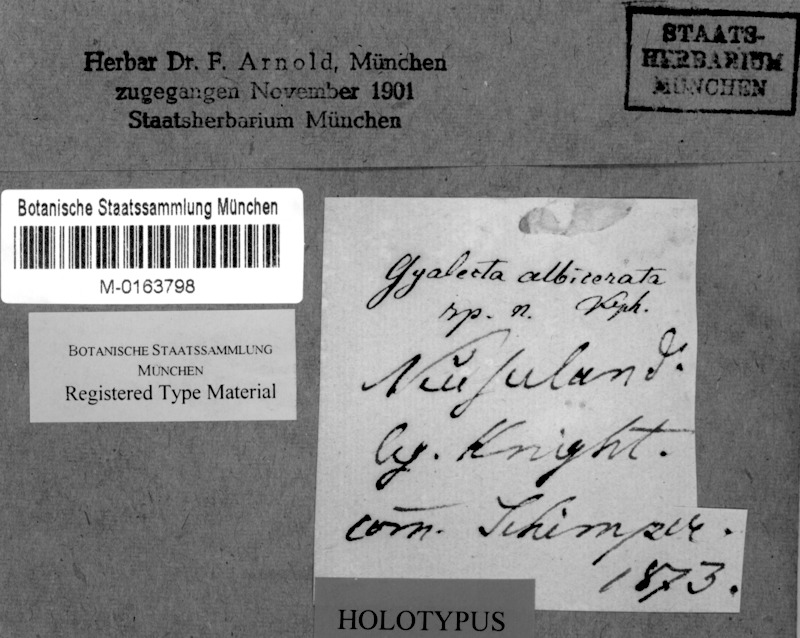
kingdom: Fungi
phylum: Ascomycota
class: Lecanoromycetes
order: Lecanorales
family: Ramalinaceae
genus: Bacidia
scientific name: Bacidia
